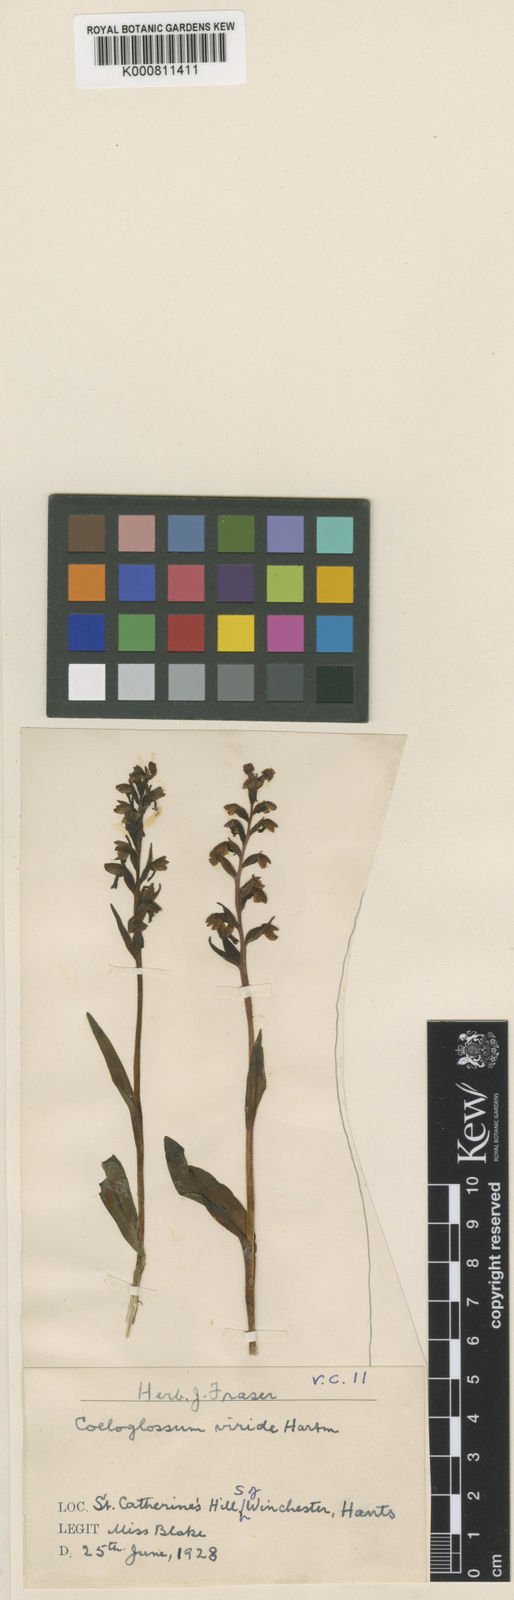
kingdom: Plantae
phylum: Tracheophyta
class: Liliopsida
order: Asparagales
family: Orchidaceae
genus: Dactylorhiza
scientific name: Dactylorhiza viridis
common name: Longbract frog orchid
